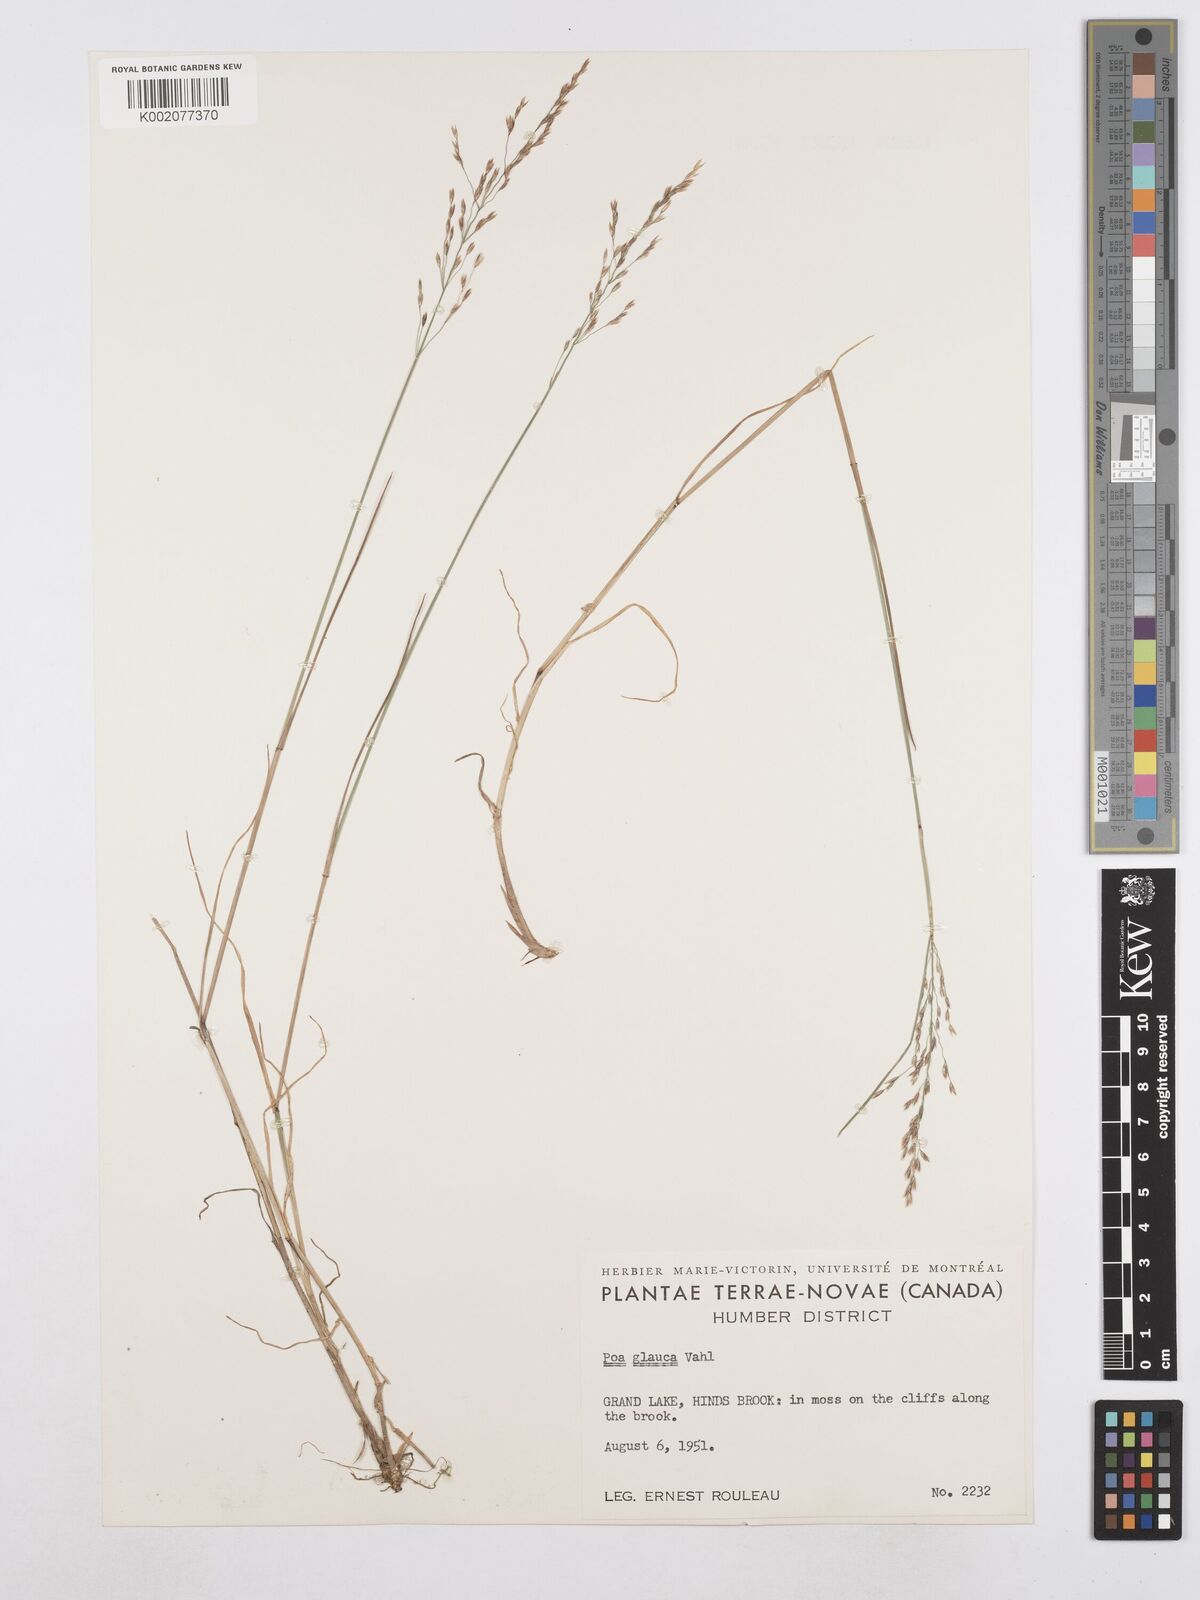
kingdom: Plantae
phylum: Tracheophyta
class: Liliopsida
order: Poales
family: Poaceae
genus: Poa
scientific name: Poa glauca
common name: Glaucous bluegrass
